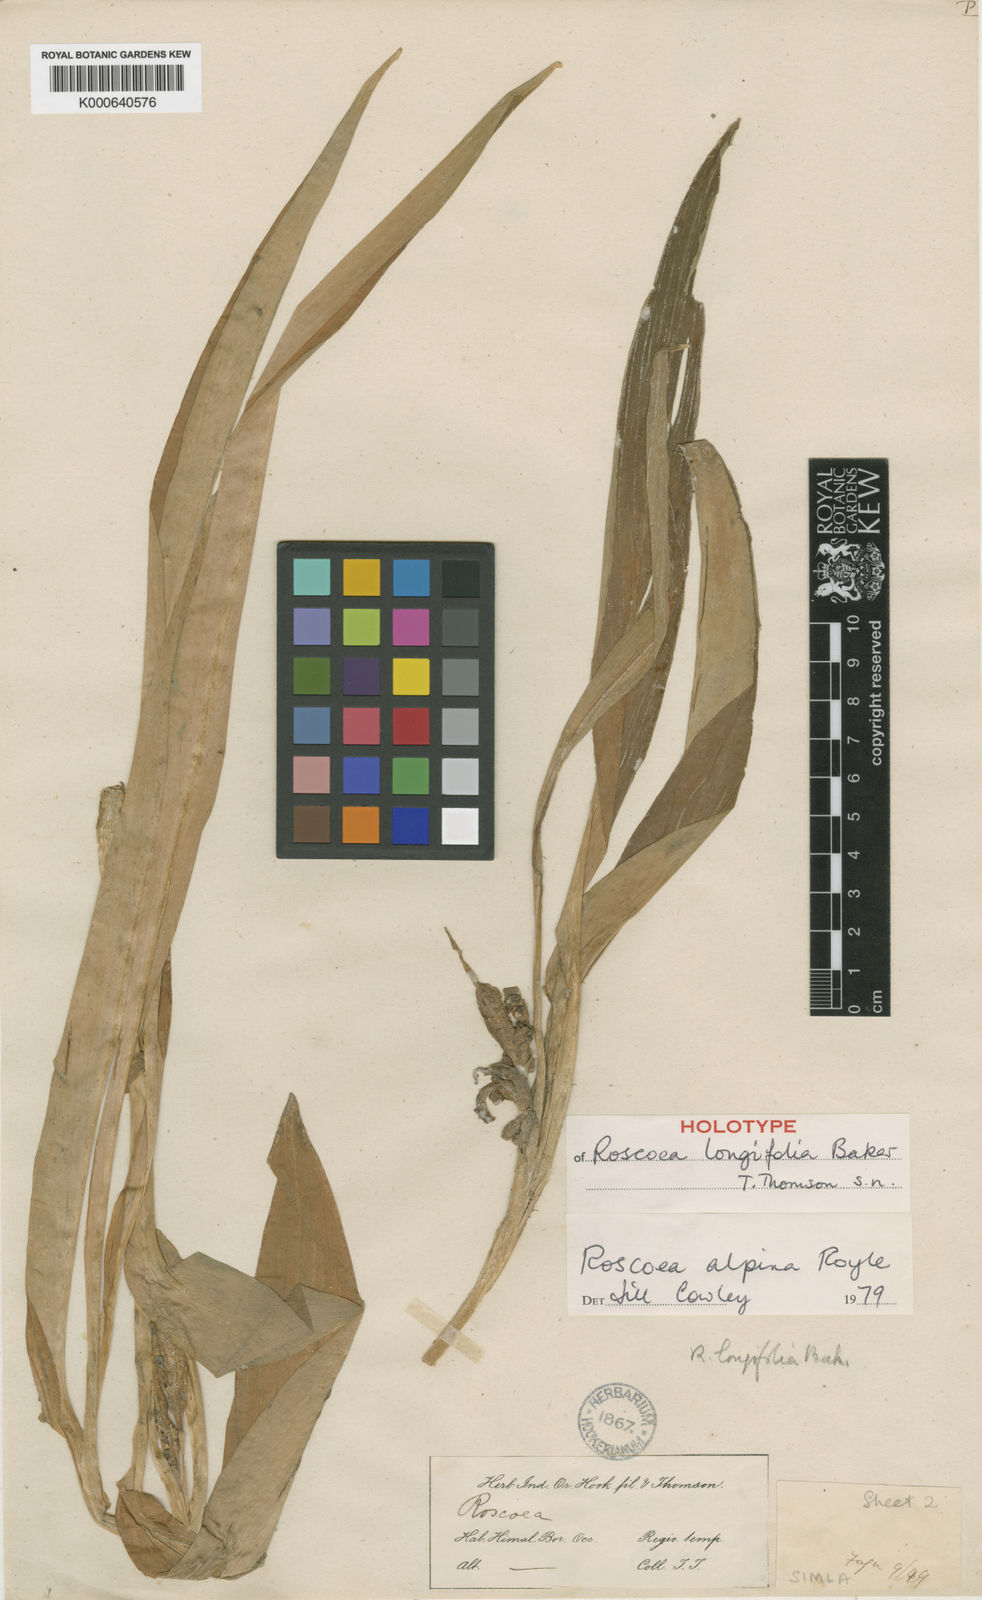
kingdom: Plantae
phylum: Tracheophyta
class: Liliopsida
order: Zingiberales
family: Zingiberaceae
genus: Roscoea
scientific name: Roscoea alpina
